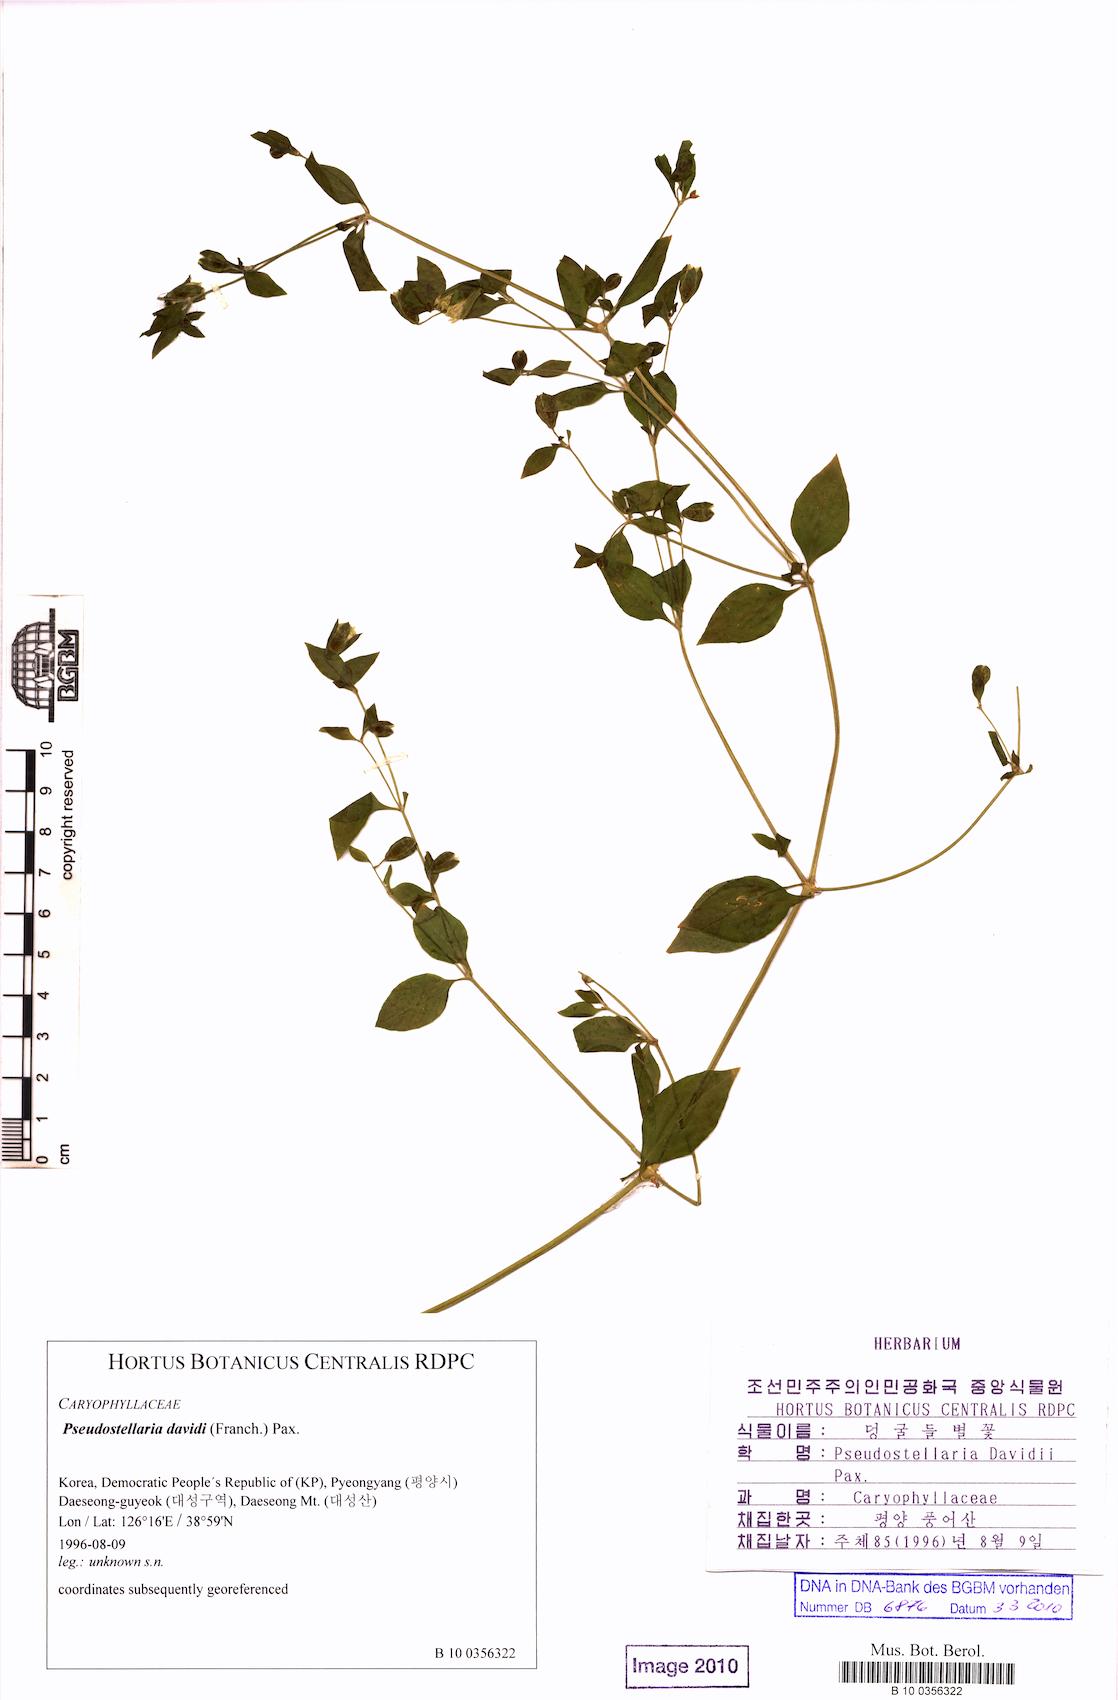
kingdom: Plantae
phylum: Tracheophyta
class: Magnoliopsida
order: Caryophyllales
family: Caryophyllaceae
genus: Pseudostellaria
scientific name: Pseudostellaria davidii
